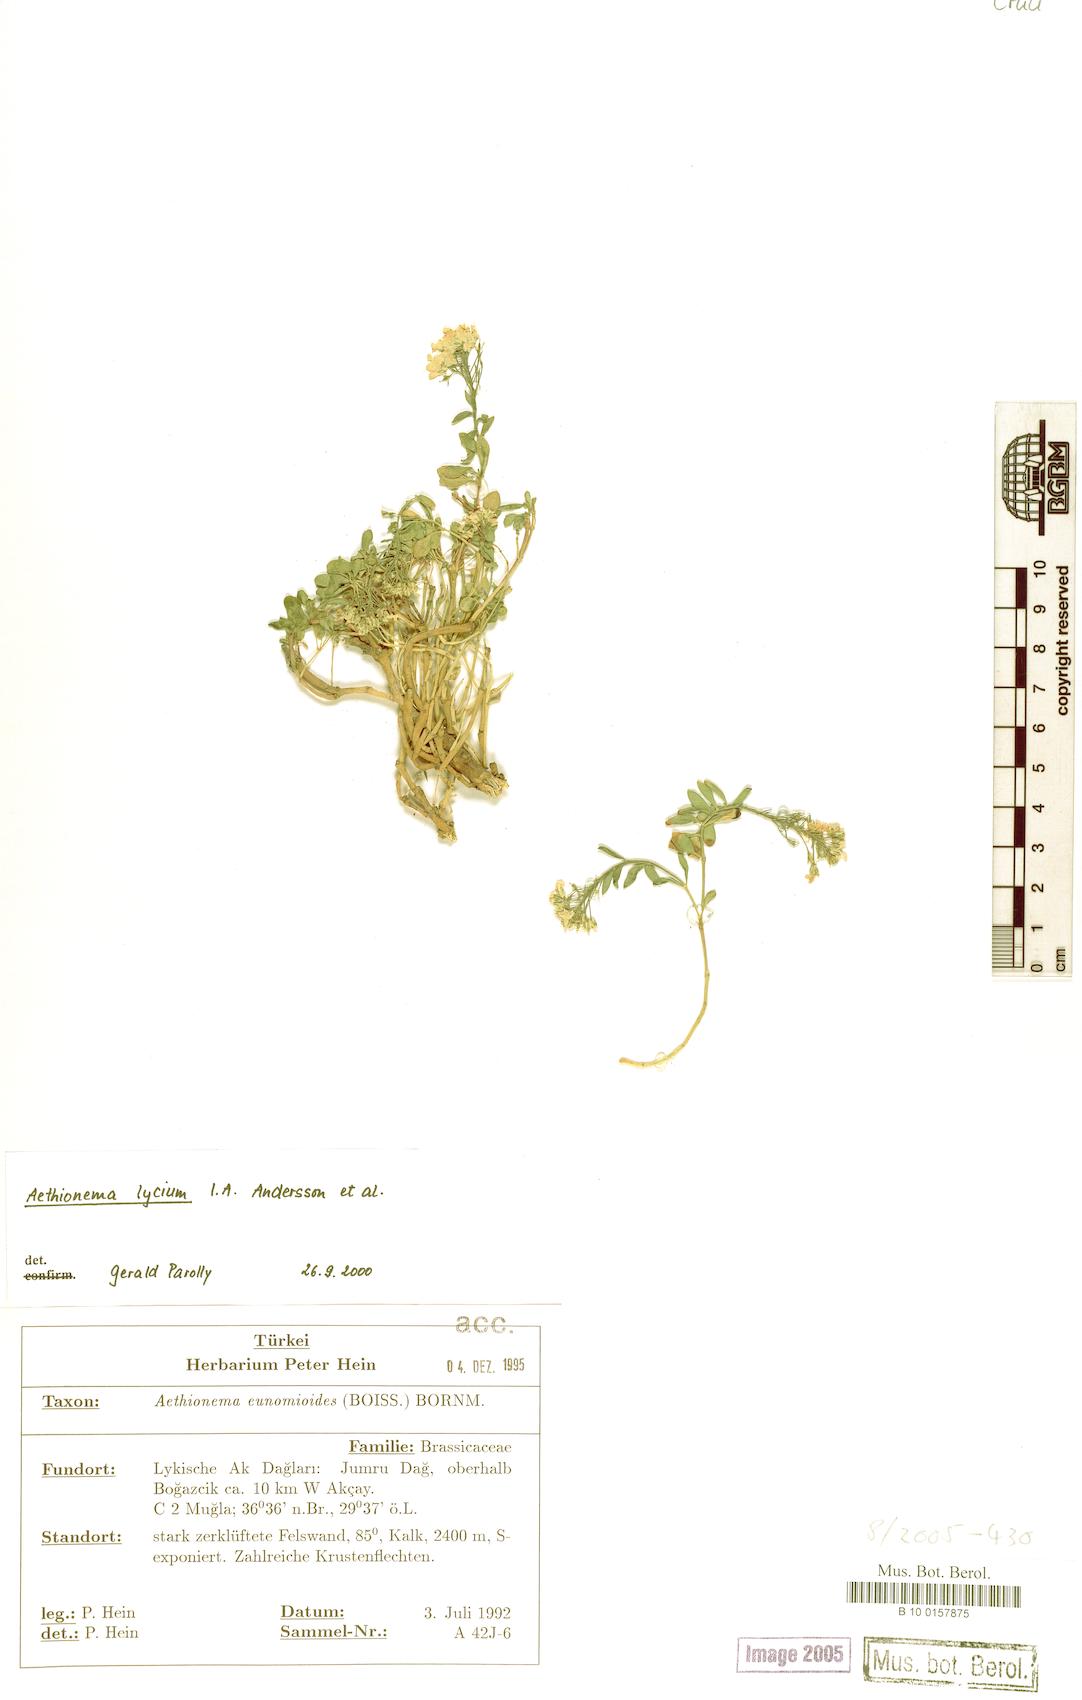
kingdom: Plantae
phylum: Tracheophyta
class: Magnoliopsida
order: Brassicales
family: Brassicaceae
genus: Aethionema
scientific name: Aethionema lycium
